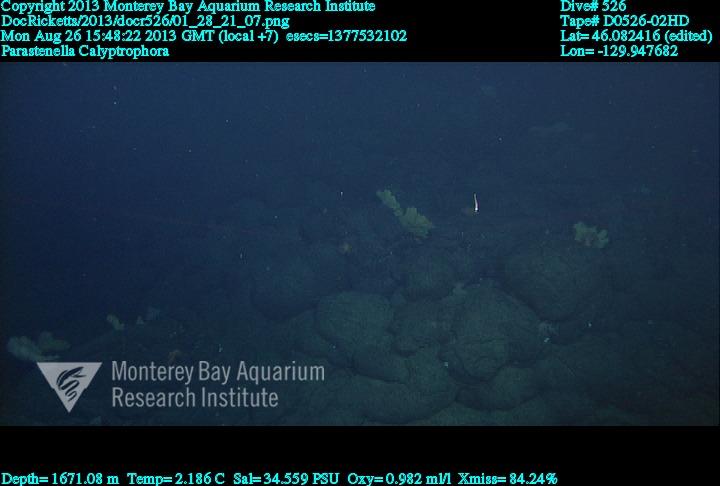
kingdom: Animalia
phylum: Cnidaria
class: Anthozoa
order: Scleralcyonacea
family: Primnoidae
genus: Calyptrophora
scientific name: Calyptrophora
